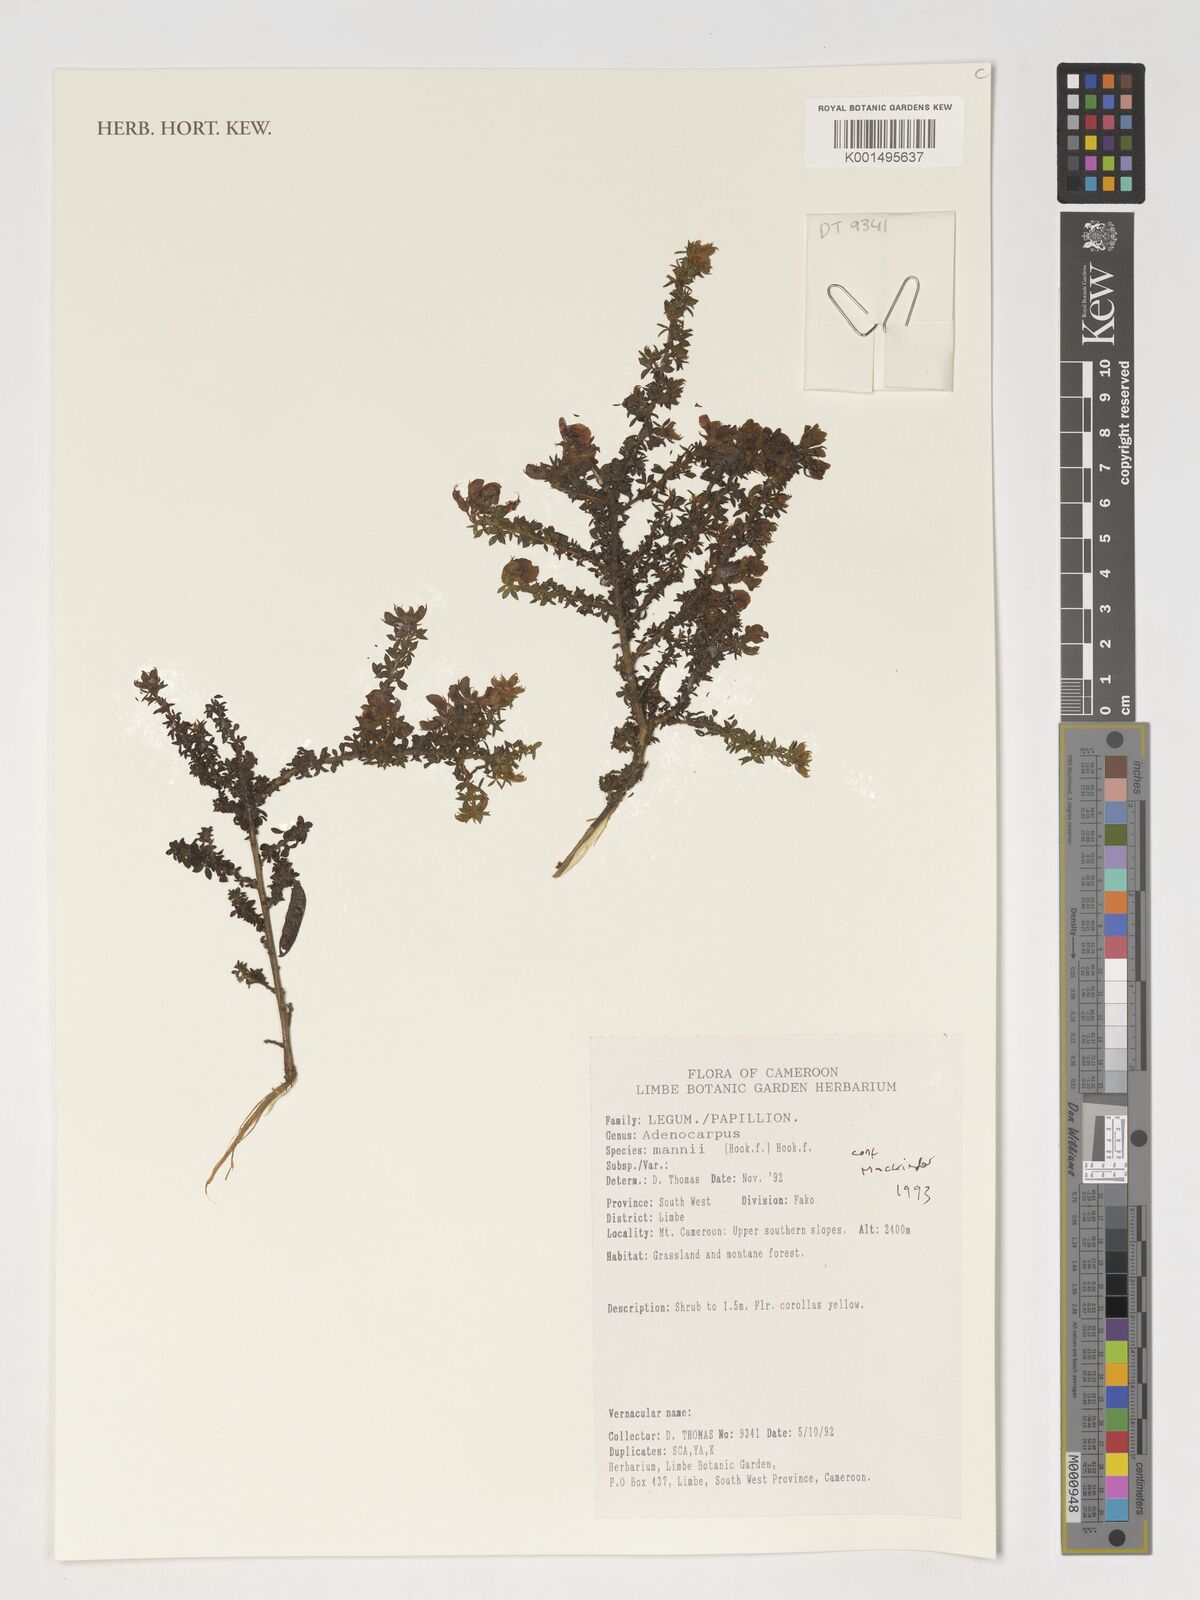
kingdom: Plantae
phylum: Tracheophyta
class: Magnoliopsida
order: Fabales
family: Fabaceae
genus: Adenocarpus
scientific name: Adenocarpus mannii
